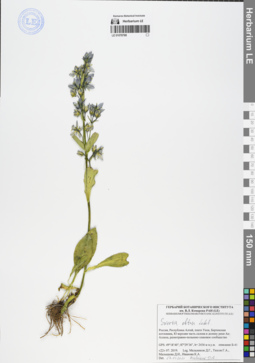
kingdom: Plantae
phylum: Tracheophyta
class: Magnoliopsida
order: Gentianales
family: Gentianaceae
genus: Swertia
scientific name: Swertia obtusa
